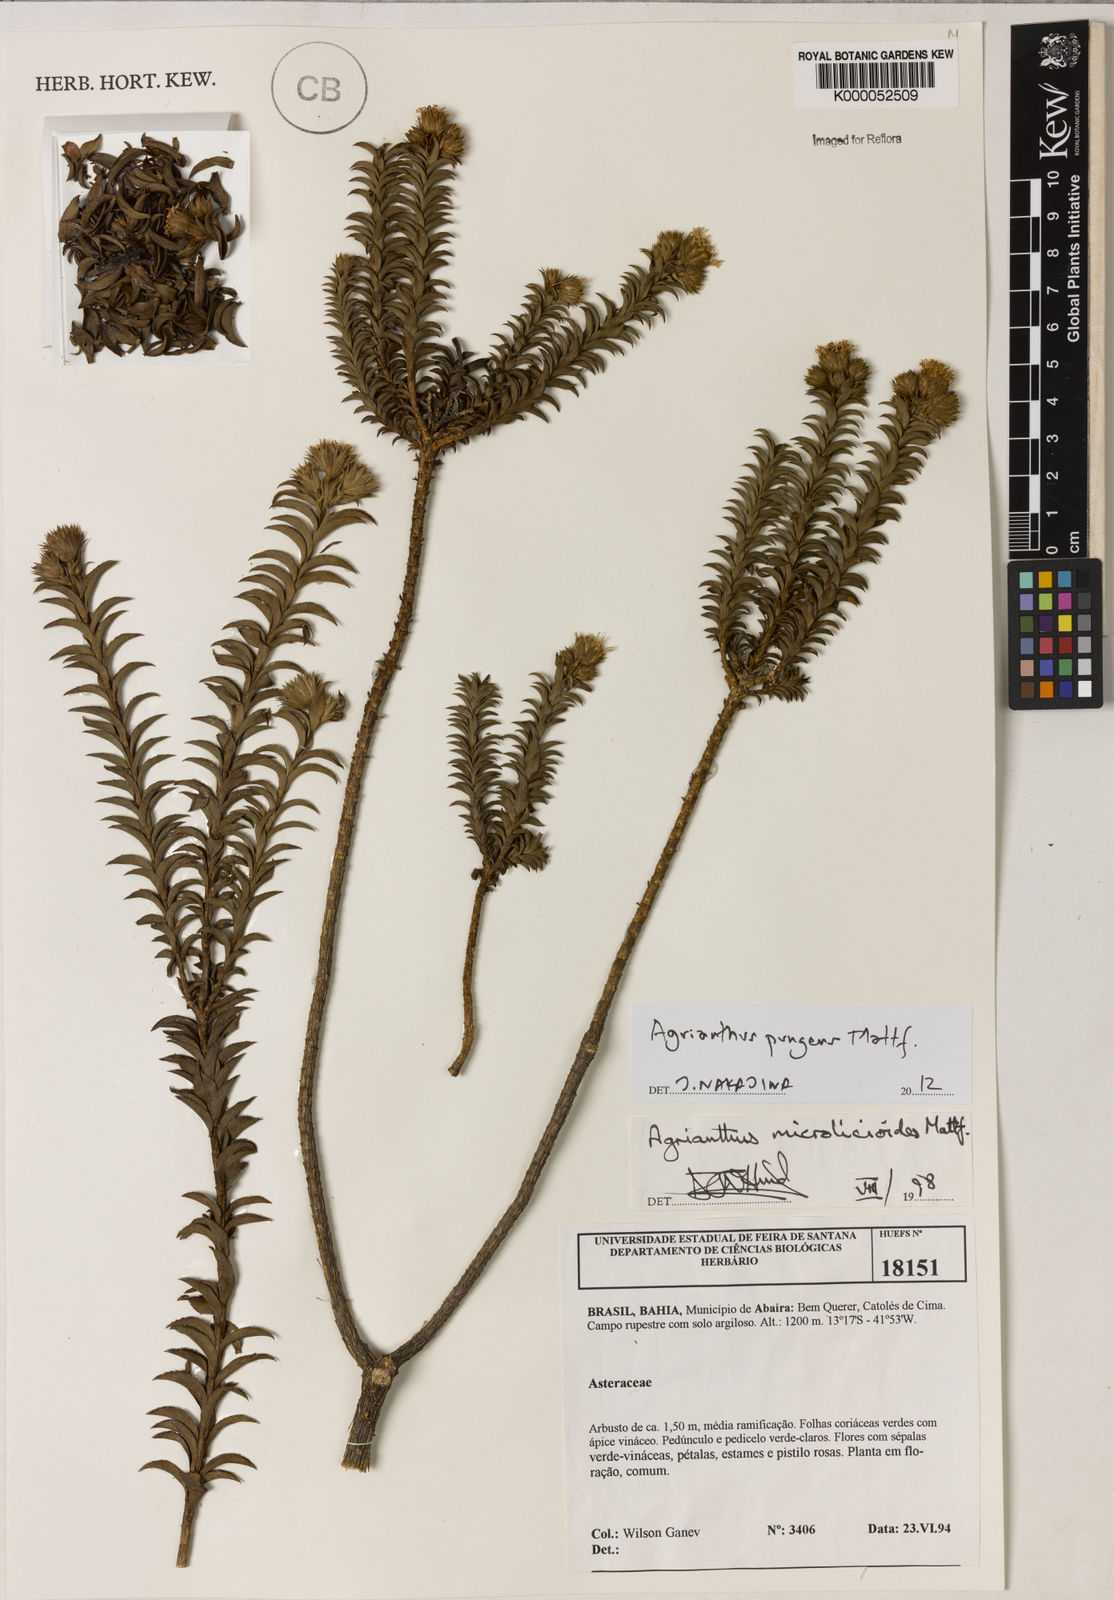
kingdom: Plantae
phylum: Tracheophyta
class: Magnoliopsida
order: Asterales
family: Asteraceae
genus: Agrianthus
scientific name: Agrianthus microlicioides
